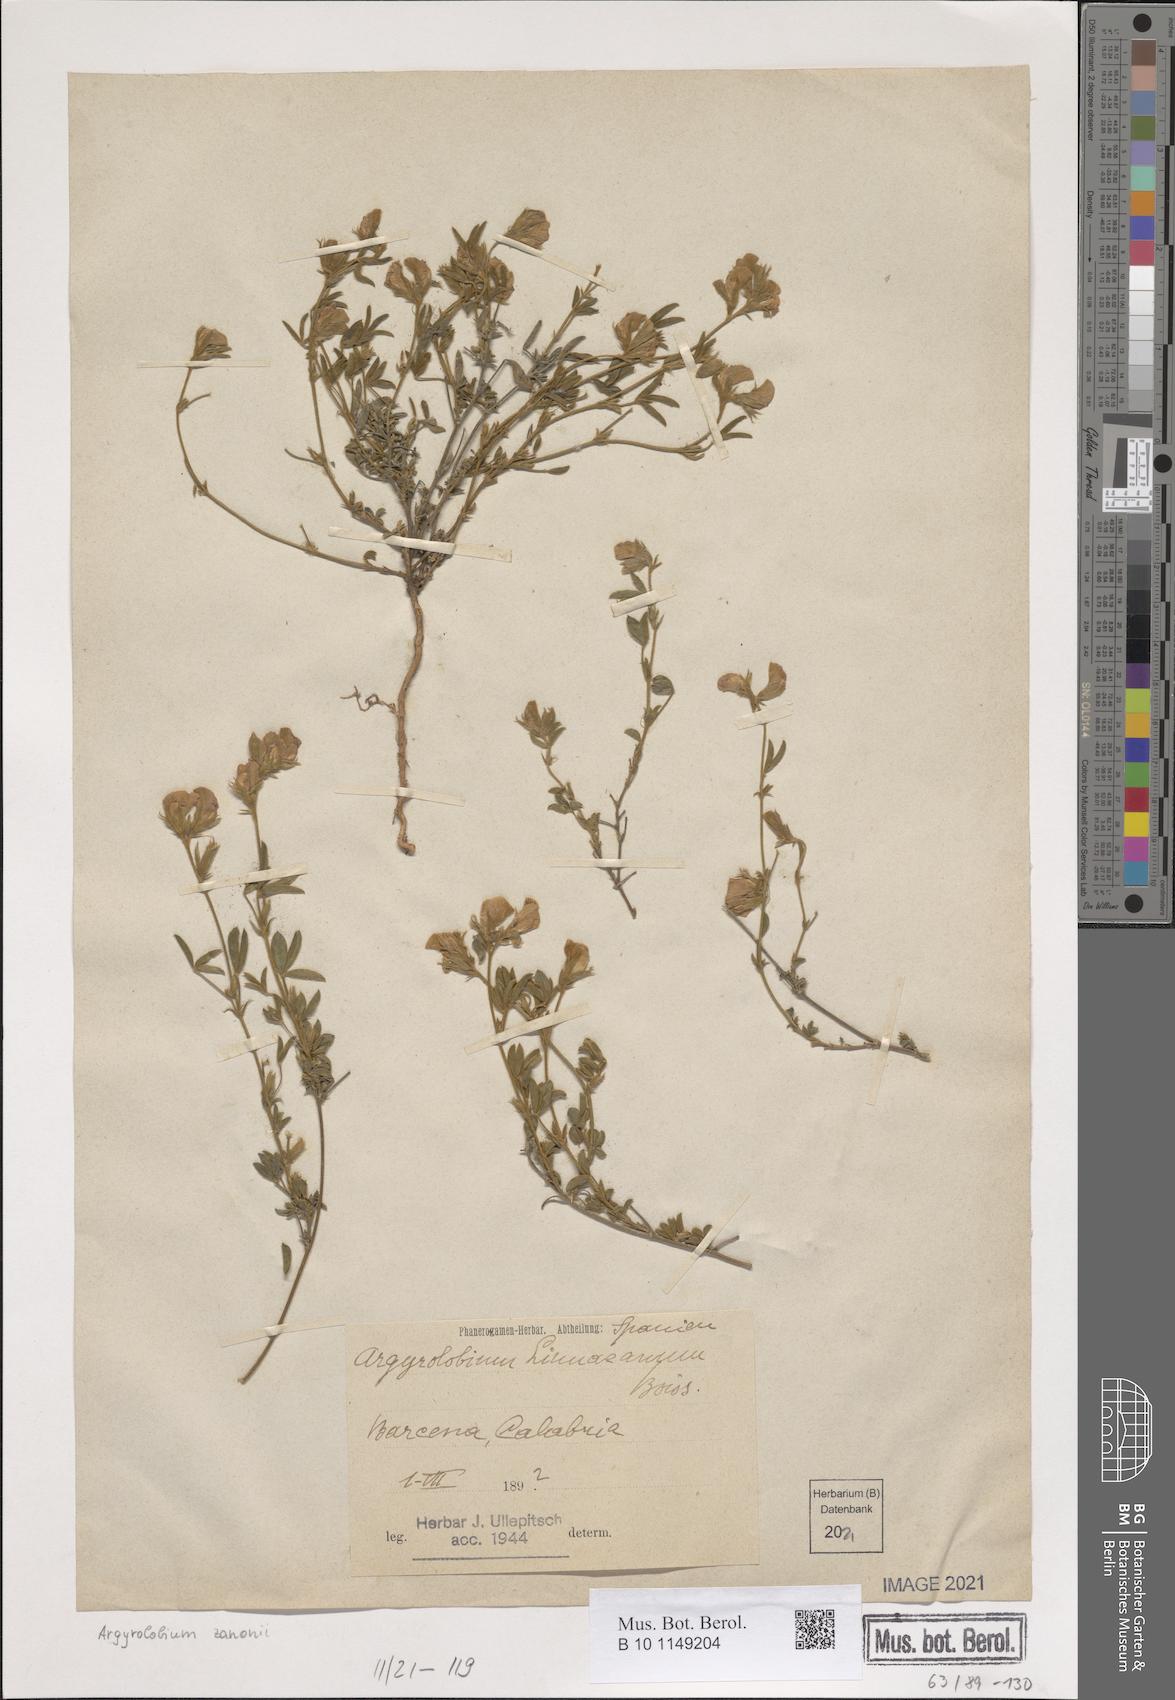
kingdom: Plantae
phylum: Tracheophyta
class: Magnoliopsida
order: Fabales
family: Fabaceae
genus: Argyrolobium
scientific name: Argyrolobium zanonii
